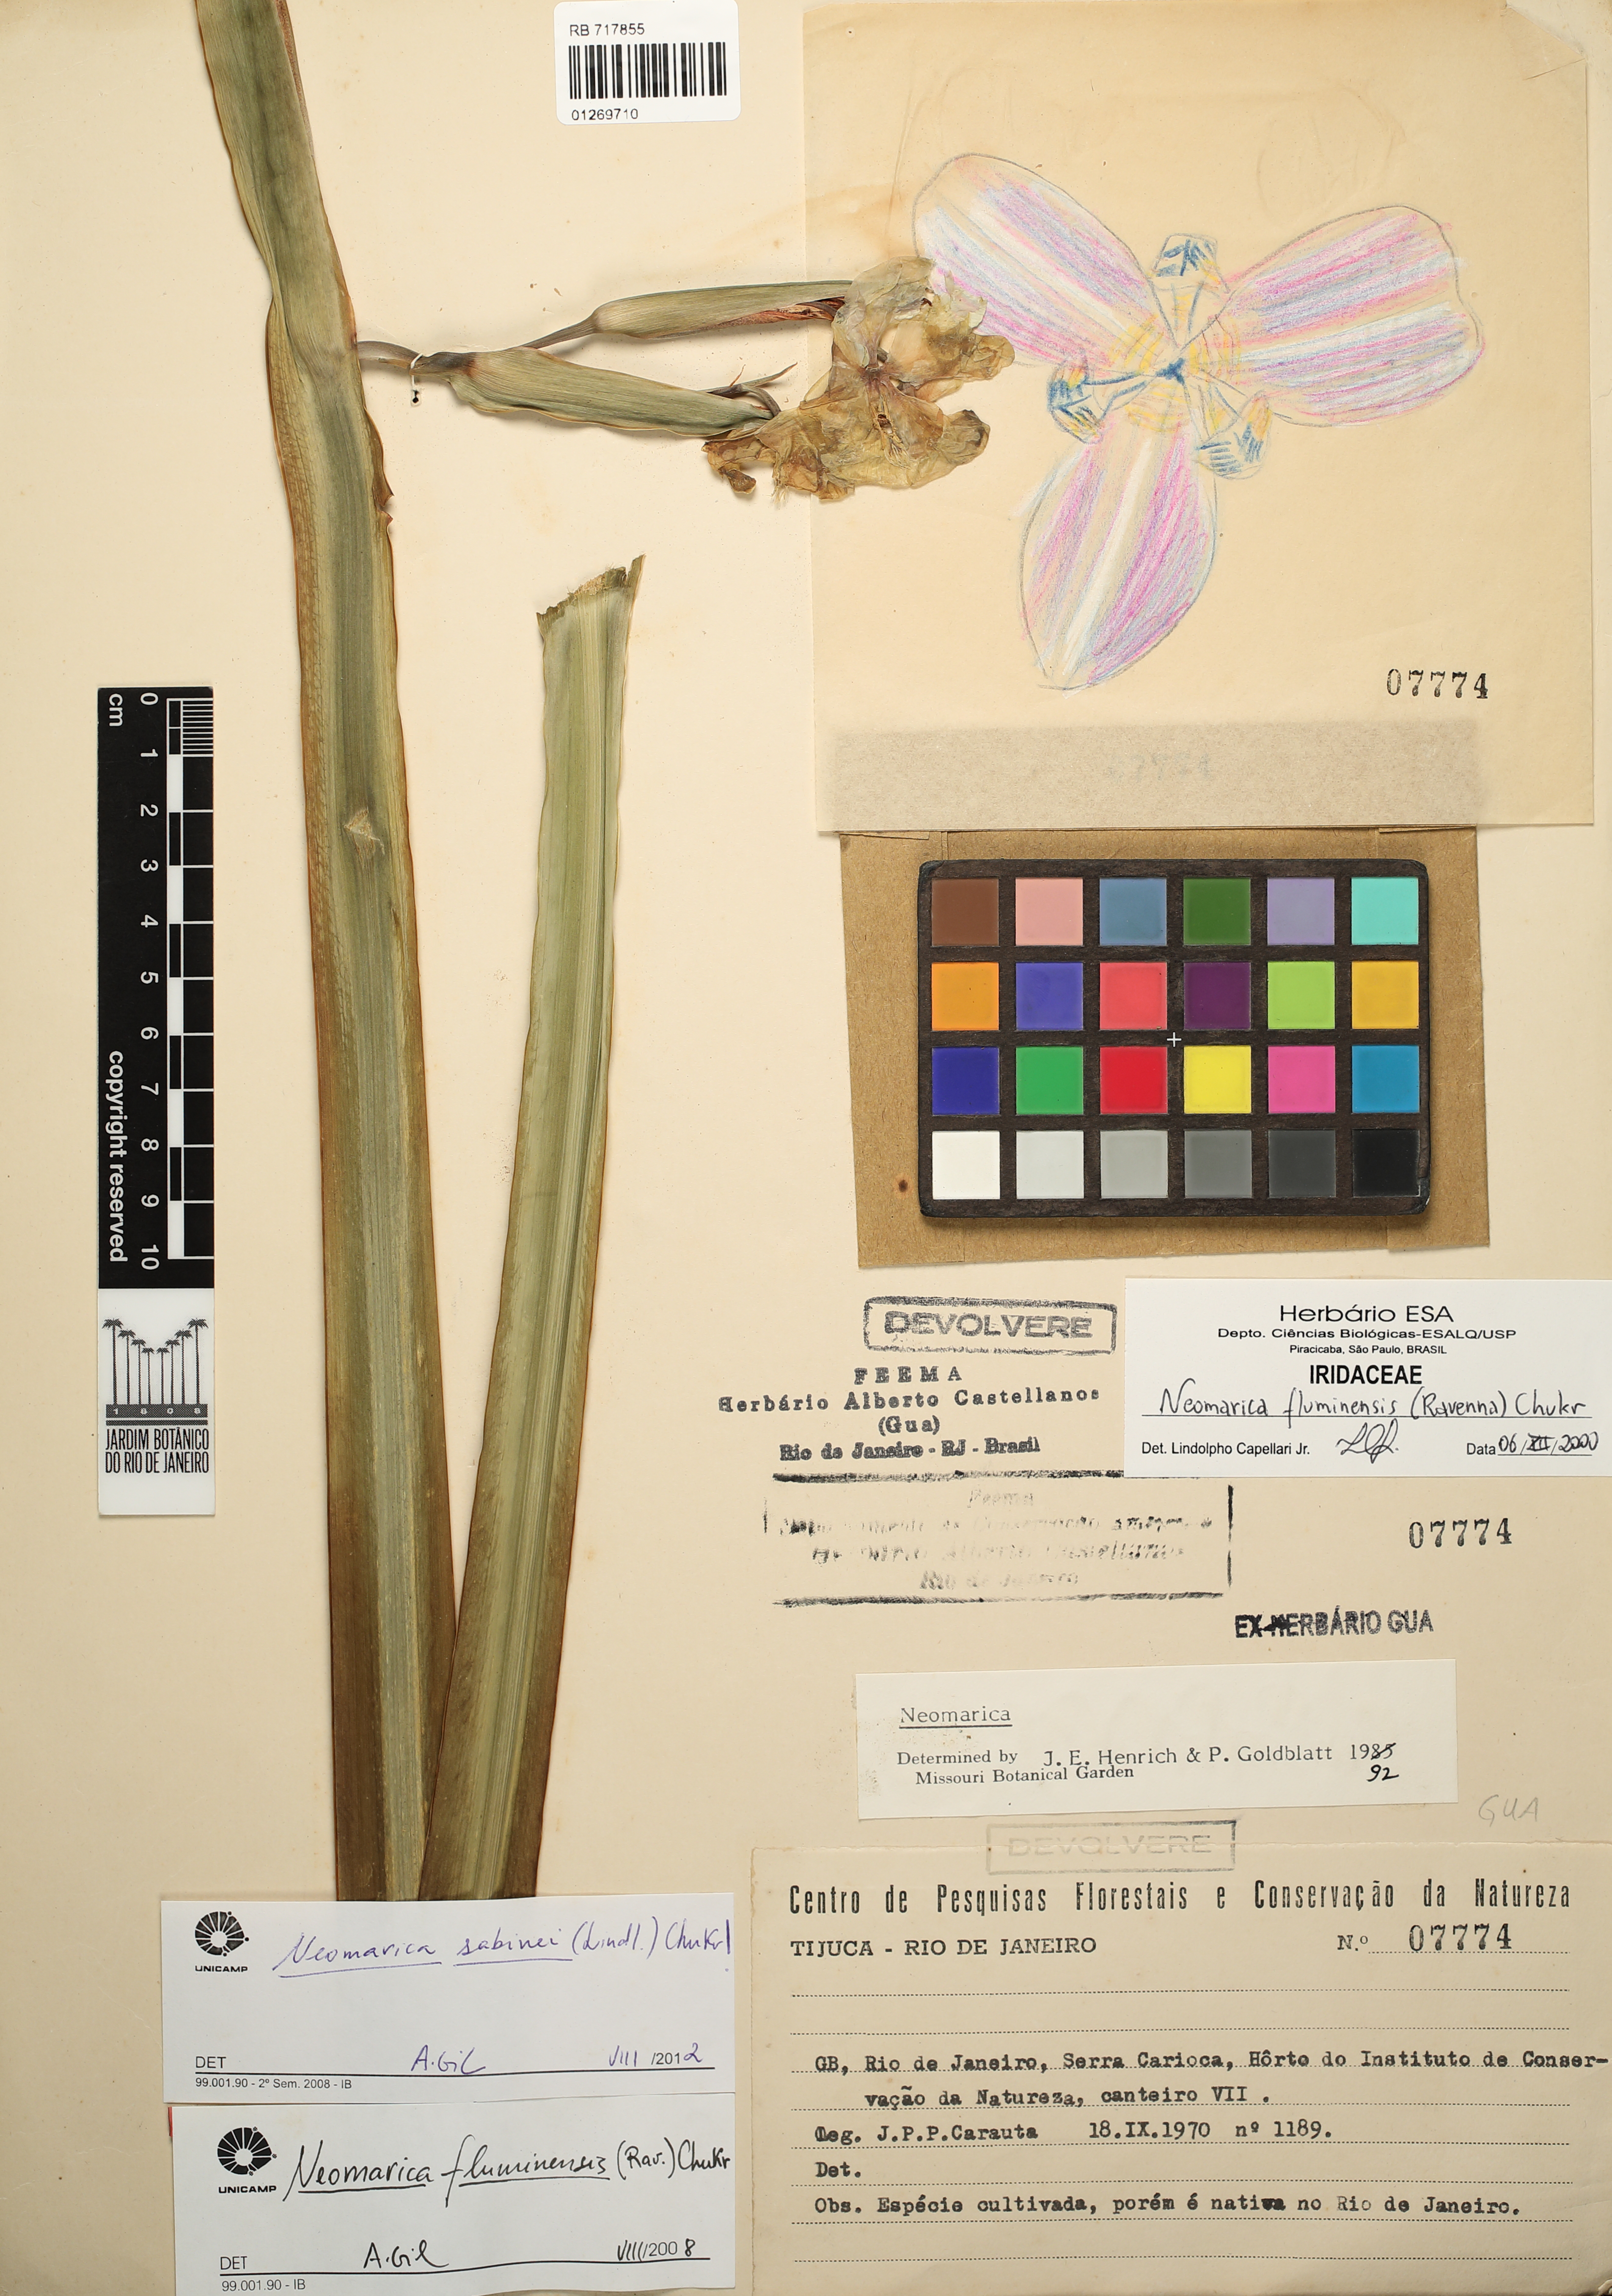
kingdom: Plantae
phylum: Tracheophyta
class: Liliopsida
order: Asparagales
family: Iridaceae
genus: Trimezia
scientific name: Trimezia sabini
